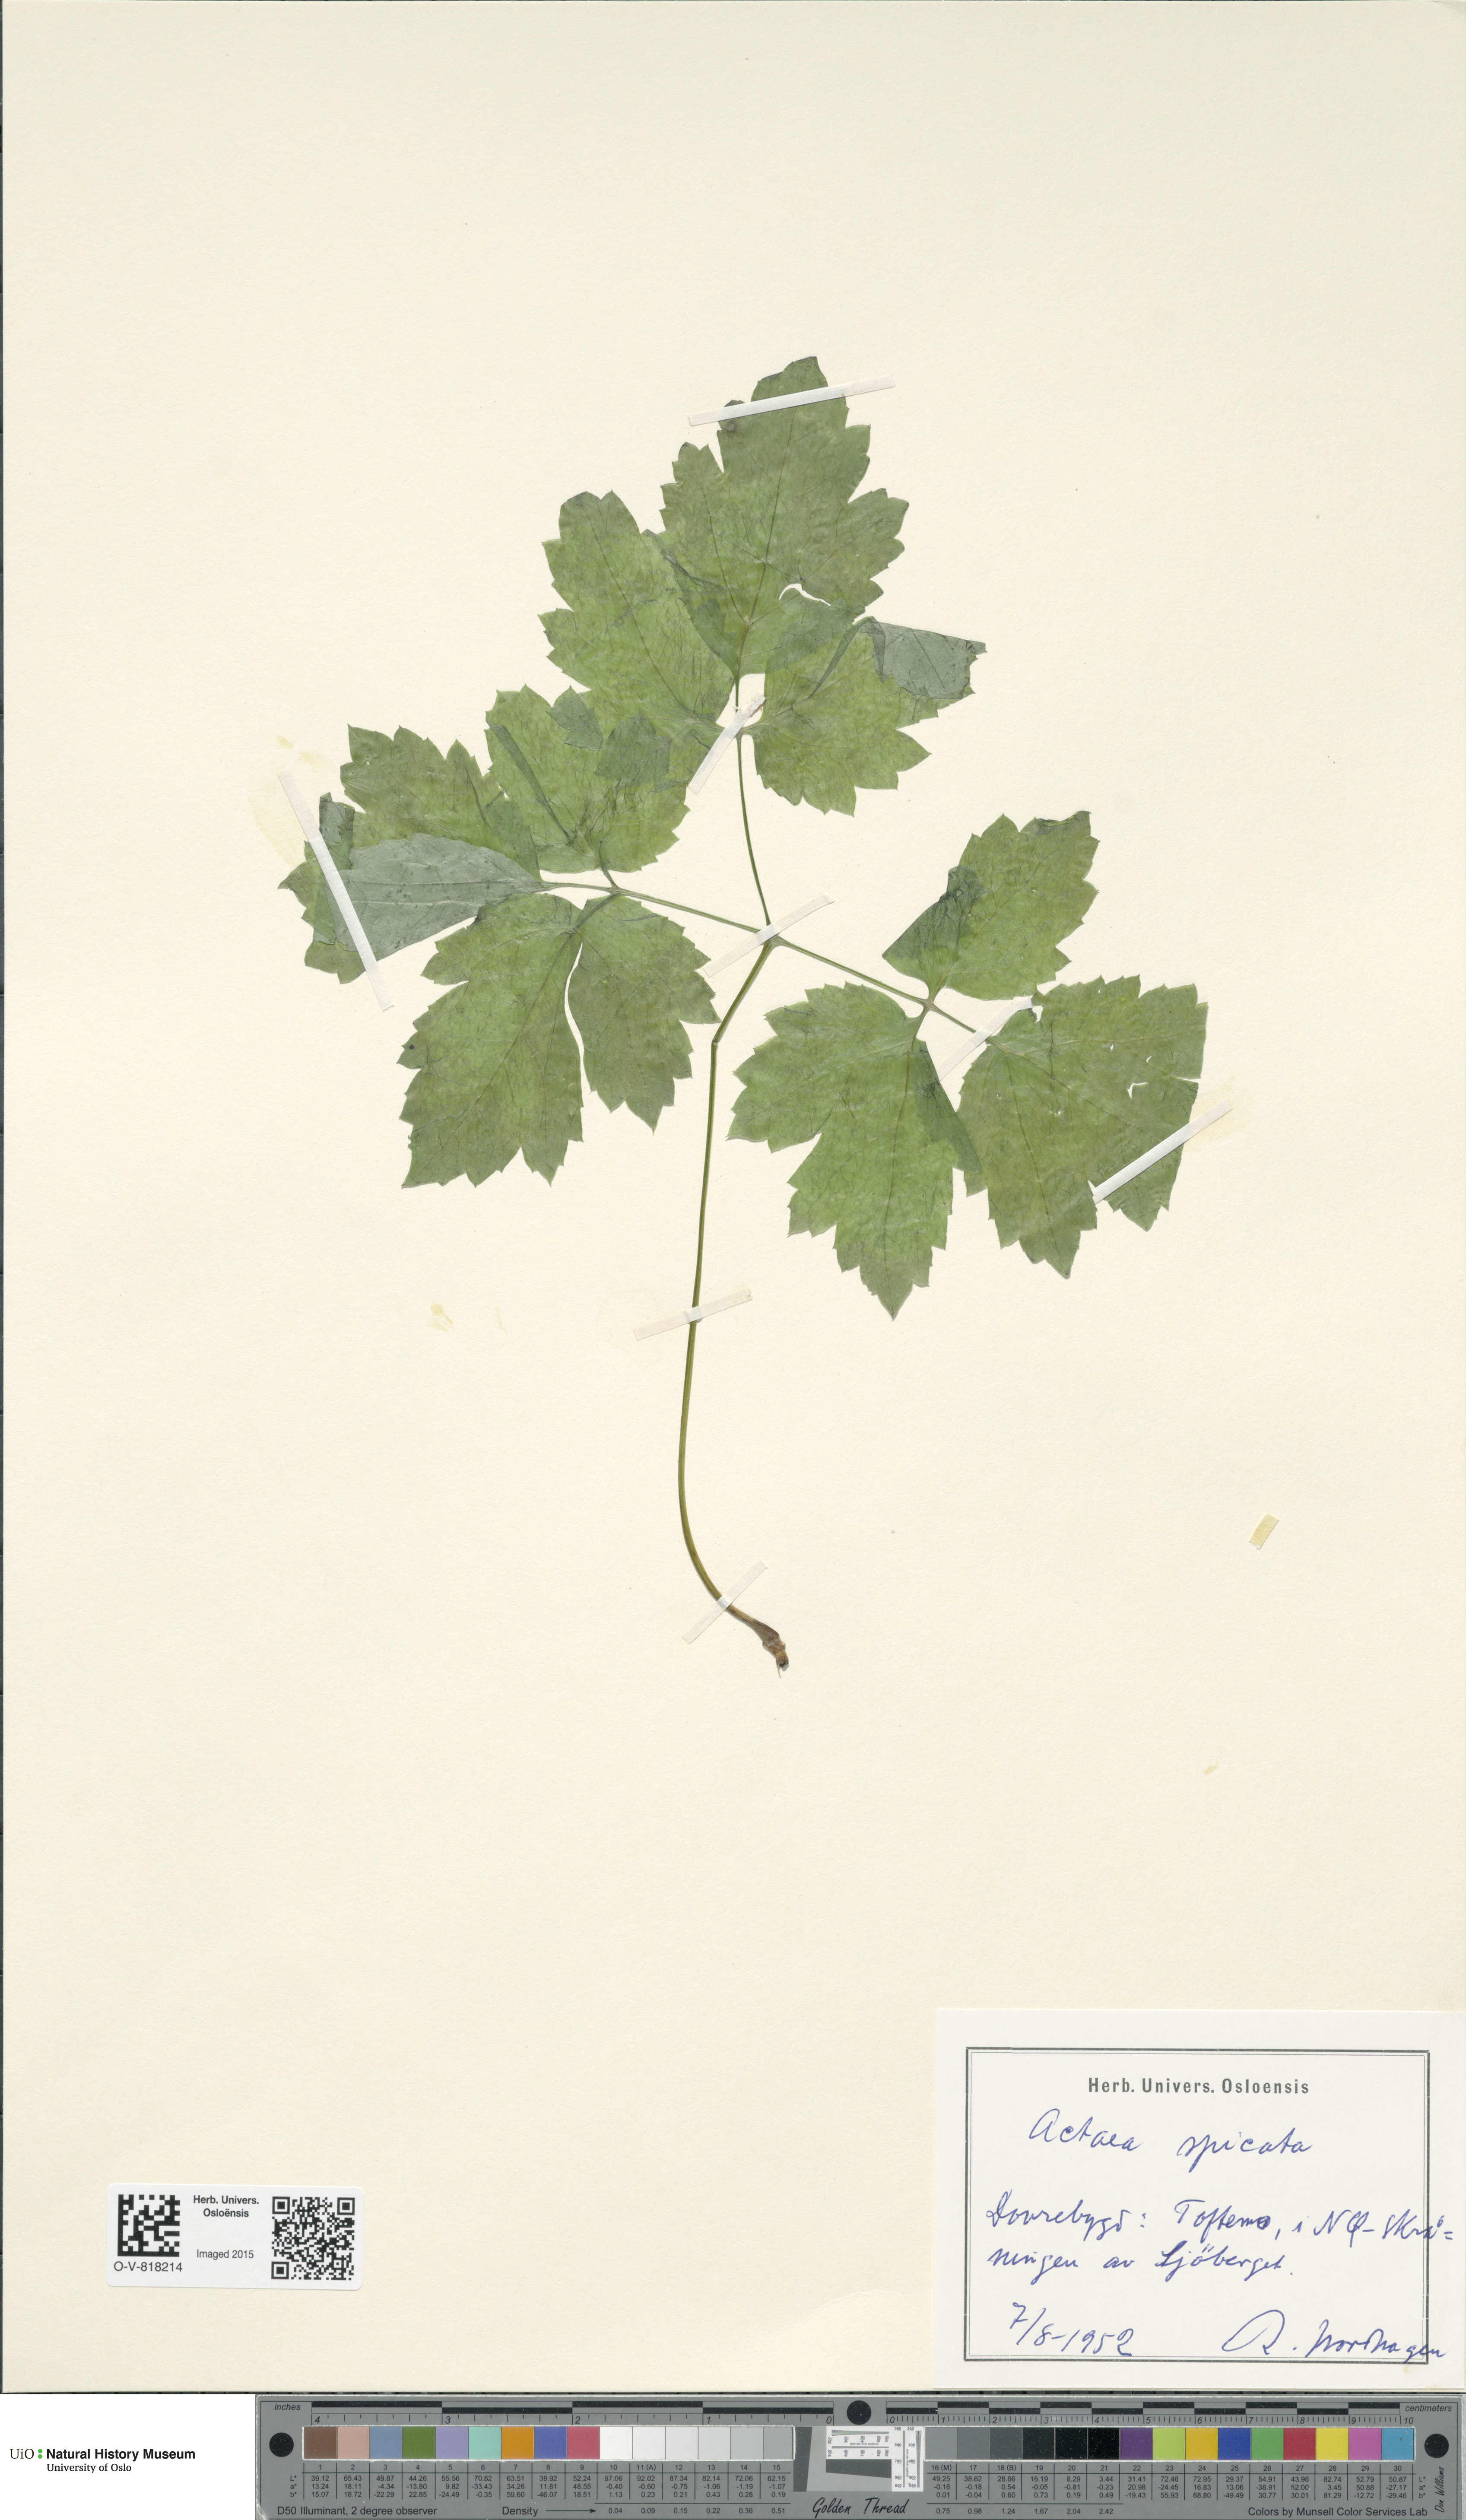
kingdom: Plantae
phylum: Tracheophyta
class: Magnoliopsida
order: Ranunculales
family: Ranunculaceae
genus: Actaea
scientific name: Actaea spicata
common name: Baneberry
